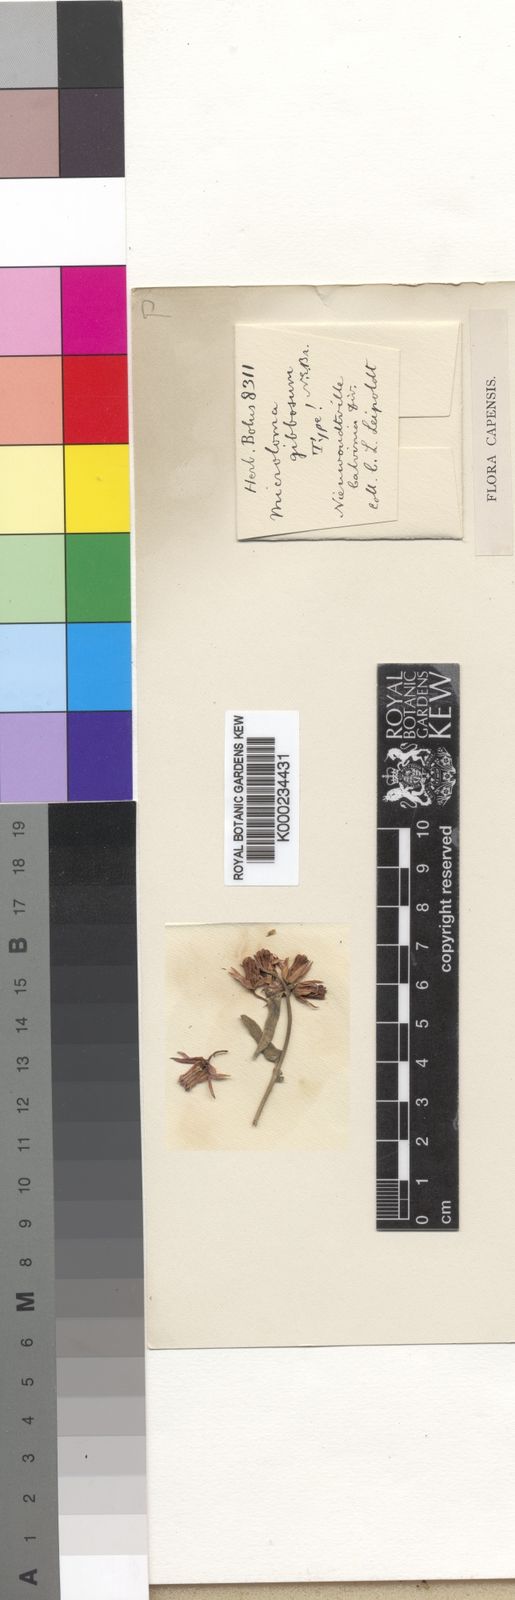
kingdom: Plantae
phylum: Tracheophyta
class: Magnoliopsida
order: Gentianales
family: Apocynaceae
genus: Microloma
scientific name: Microloma sagittatum
